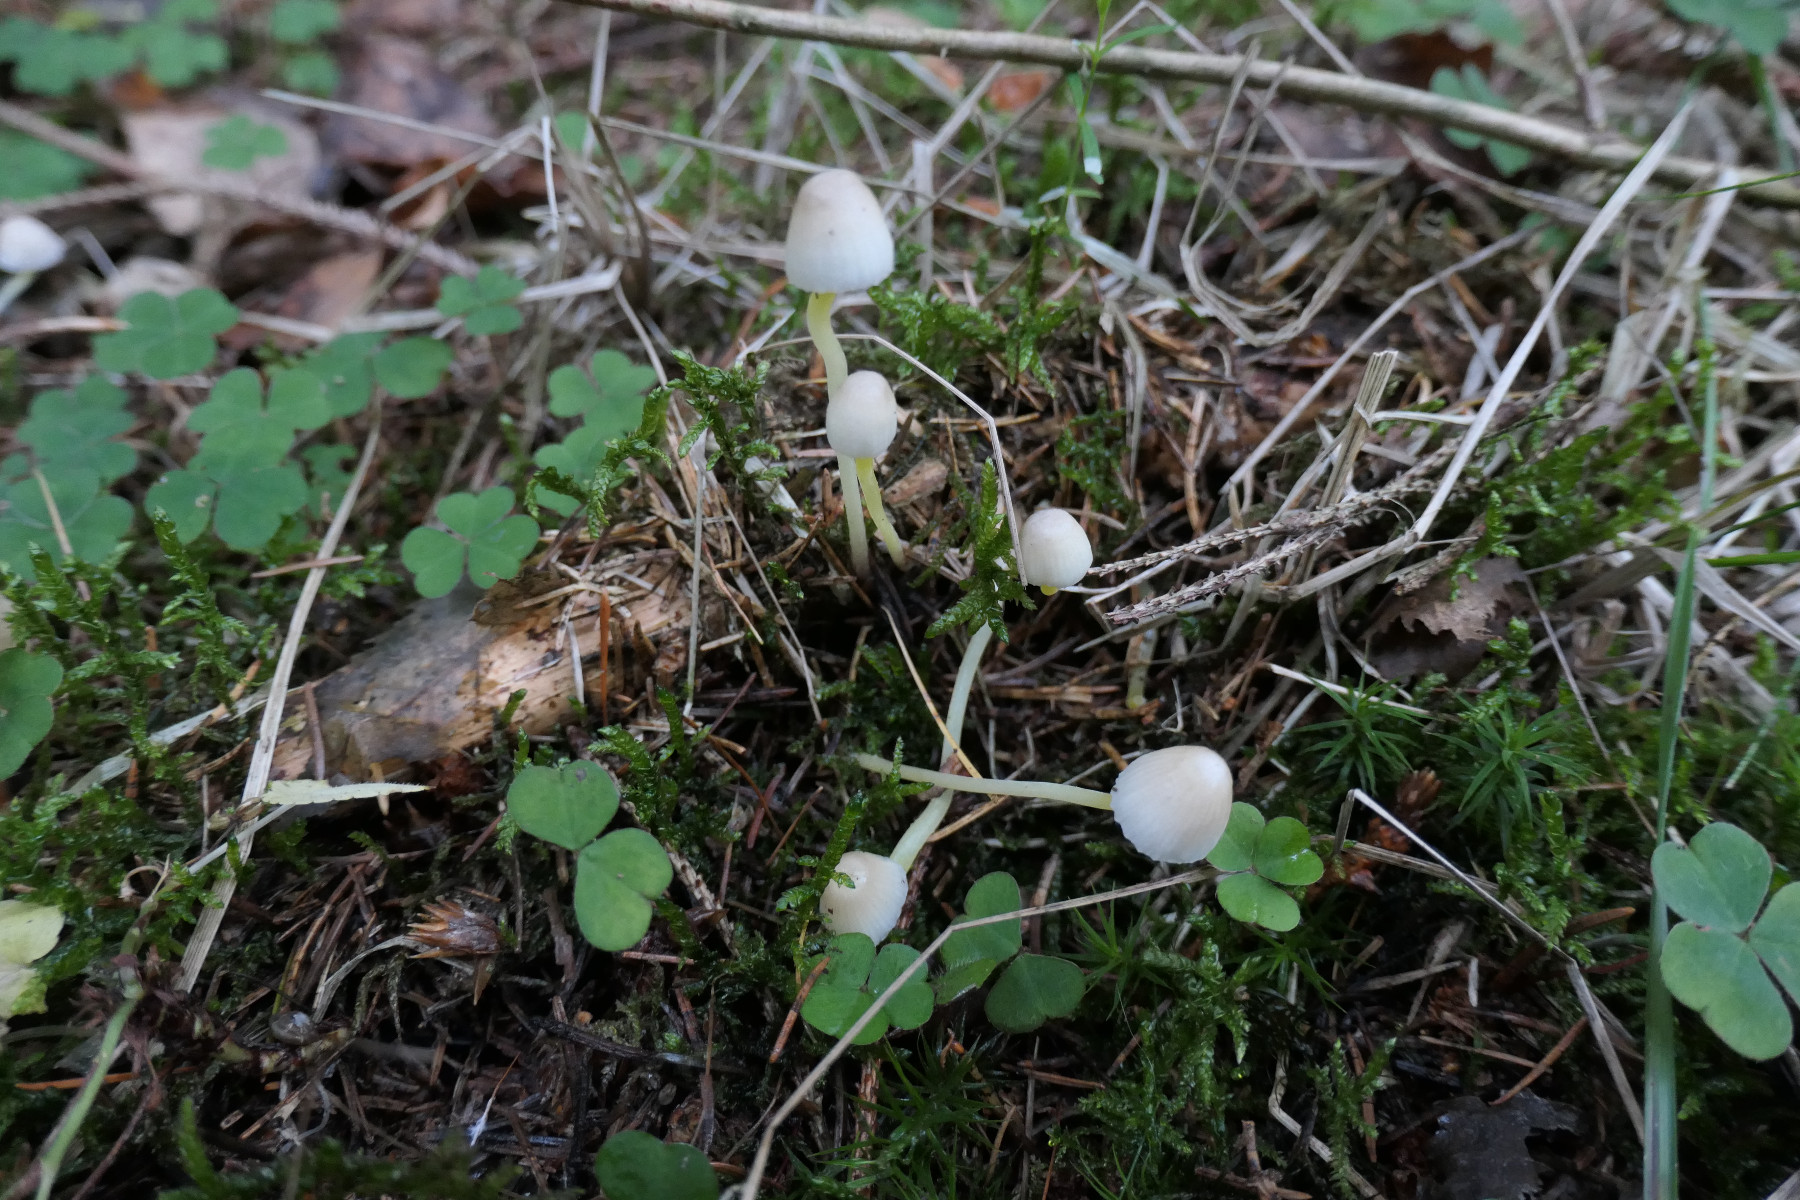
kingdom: Fungi
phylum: Basidiomycota
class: Agaricomycetes
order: Agaricales
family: Mycenaceae
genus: Mycena
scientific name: Mycena epipterygia
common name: gulstokket huesvamp
